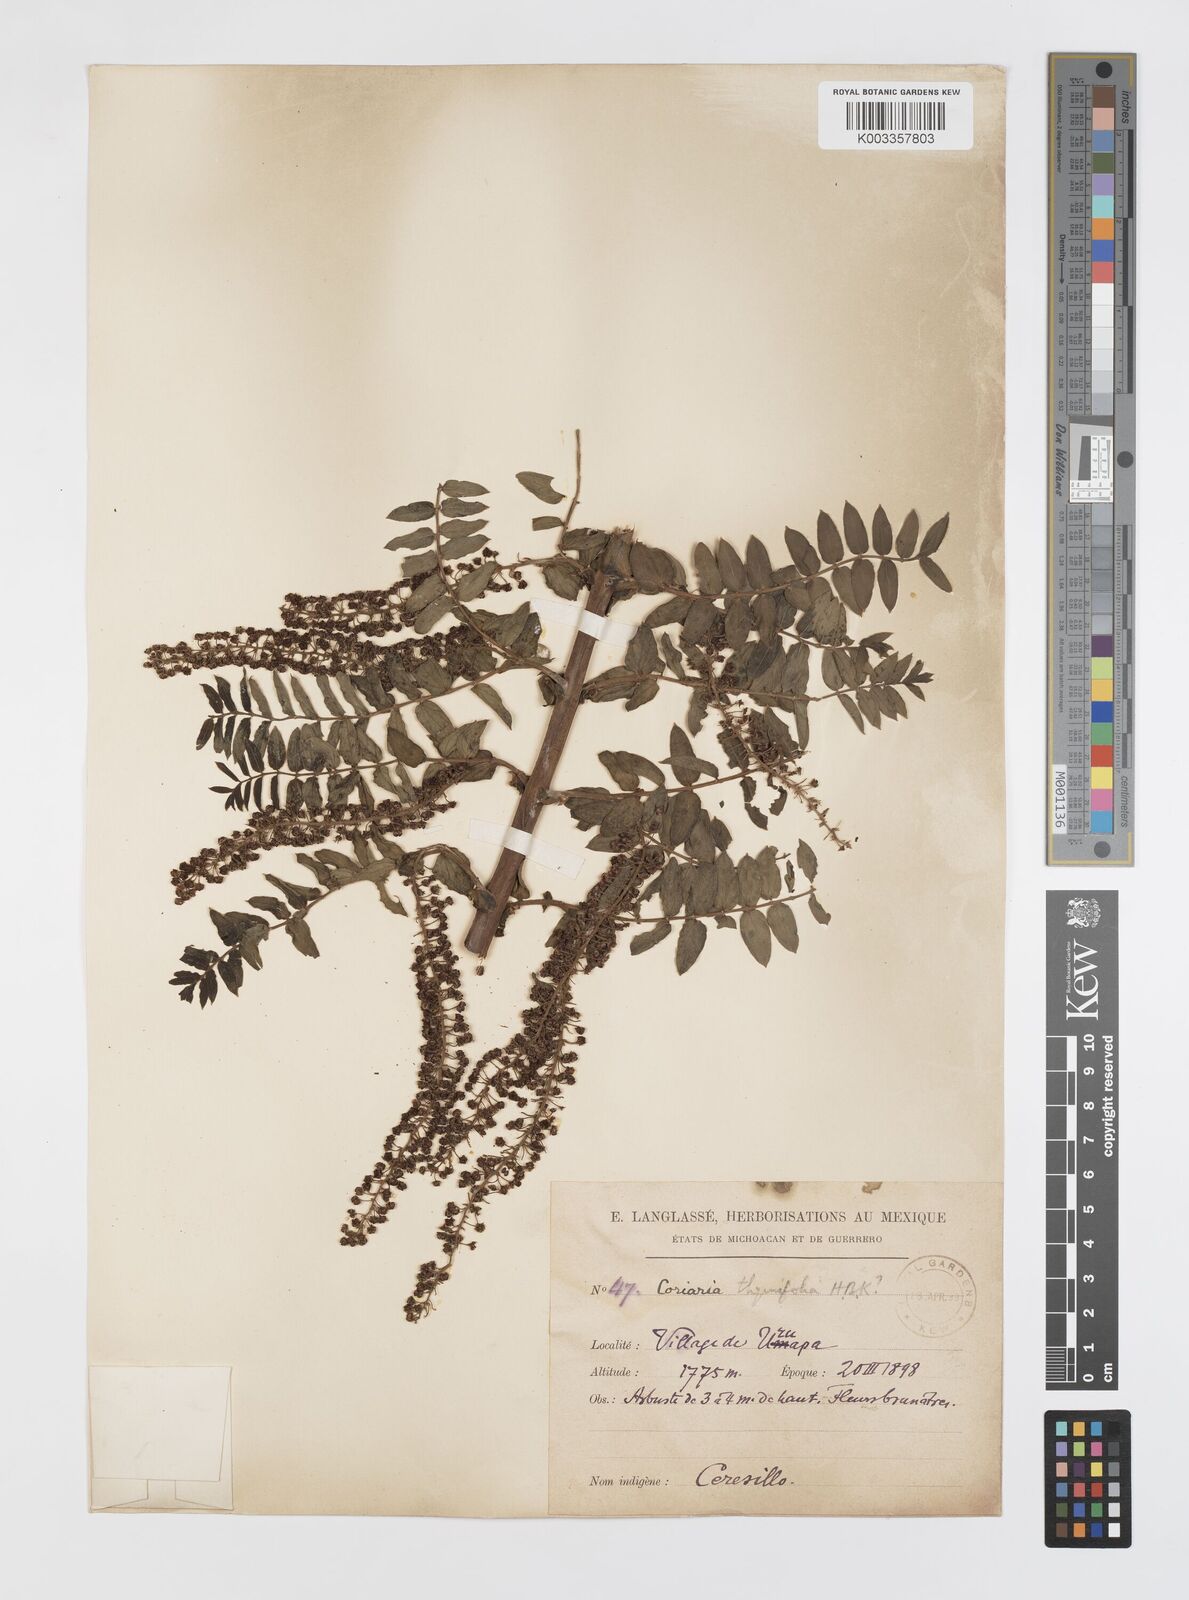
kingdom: Plantae
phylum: Tracheophyta
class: Magnoliopsida
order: Cucurbitales
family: Coriariaceae
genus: Coriaria
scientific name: Coriaria microphylla
